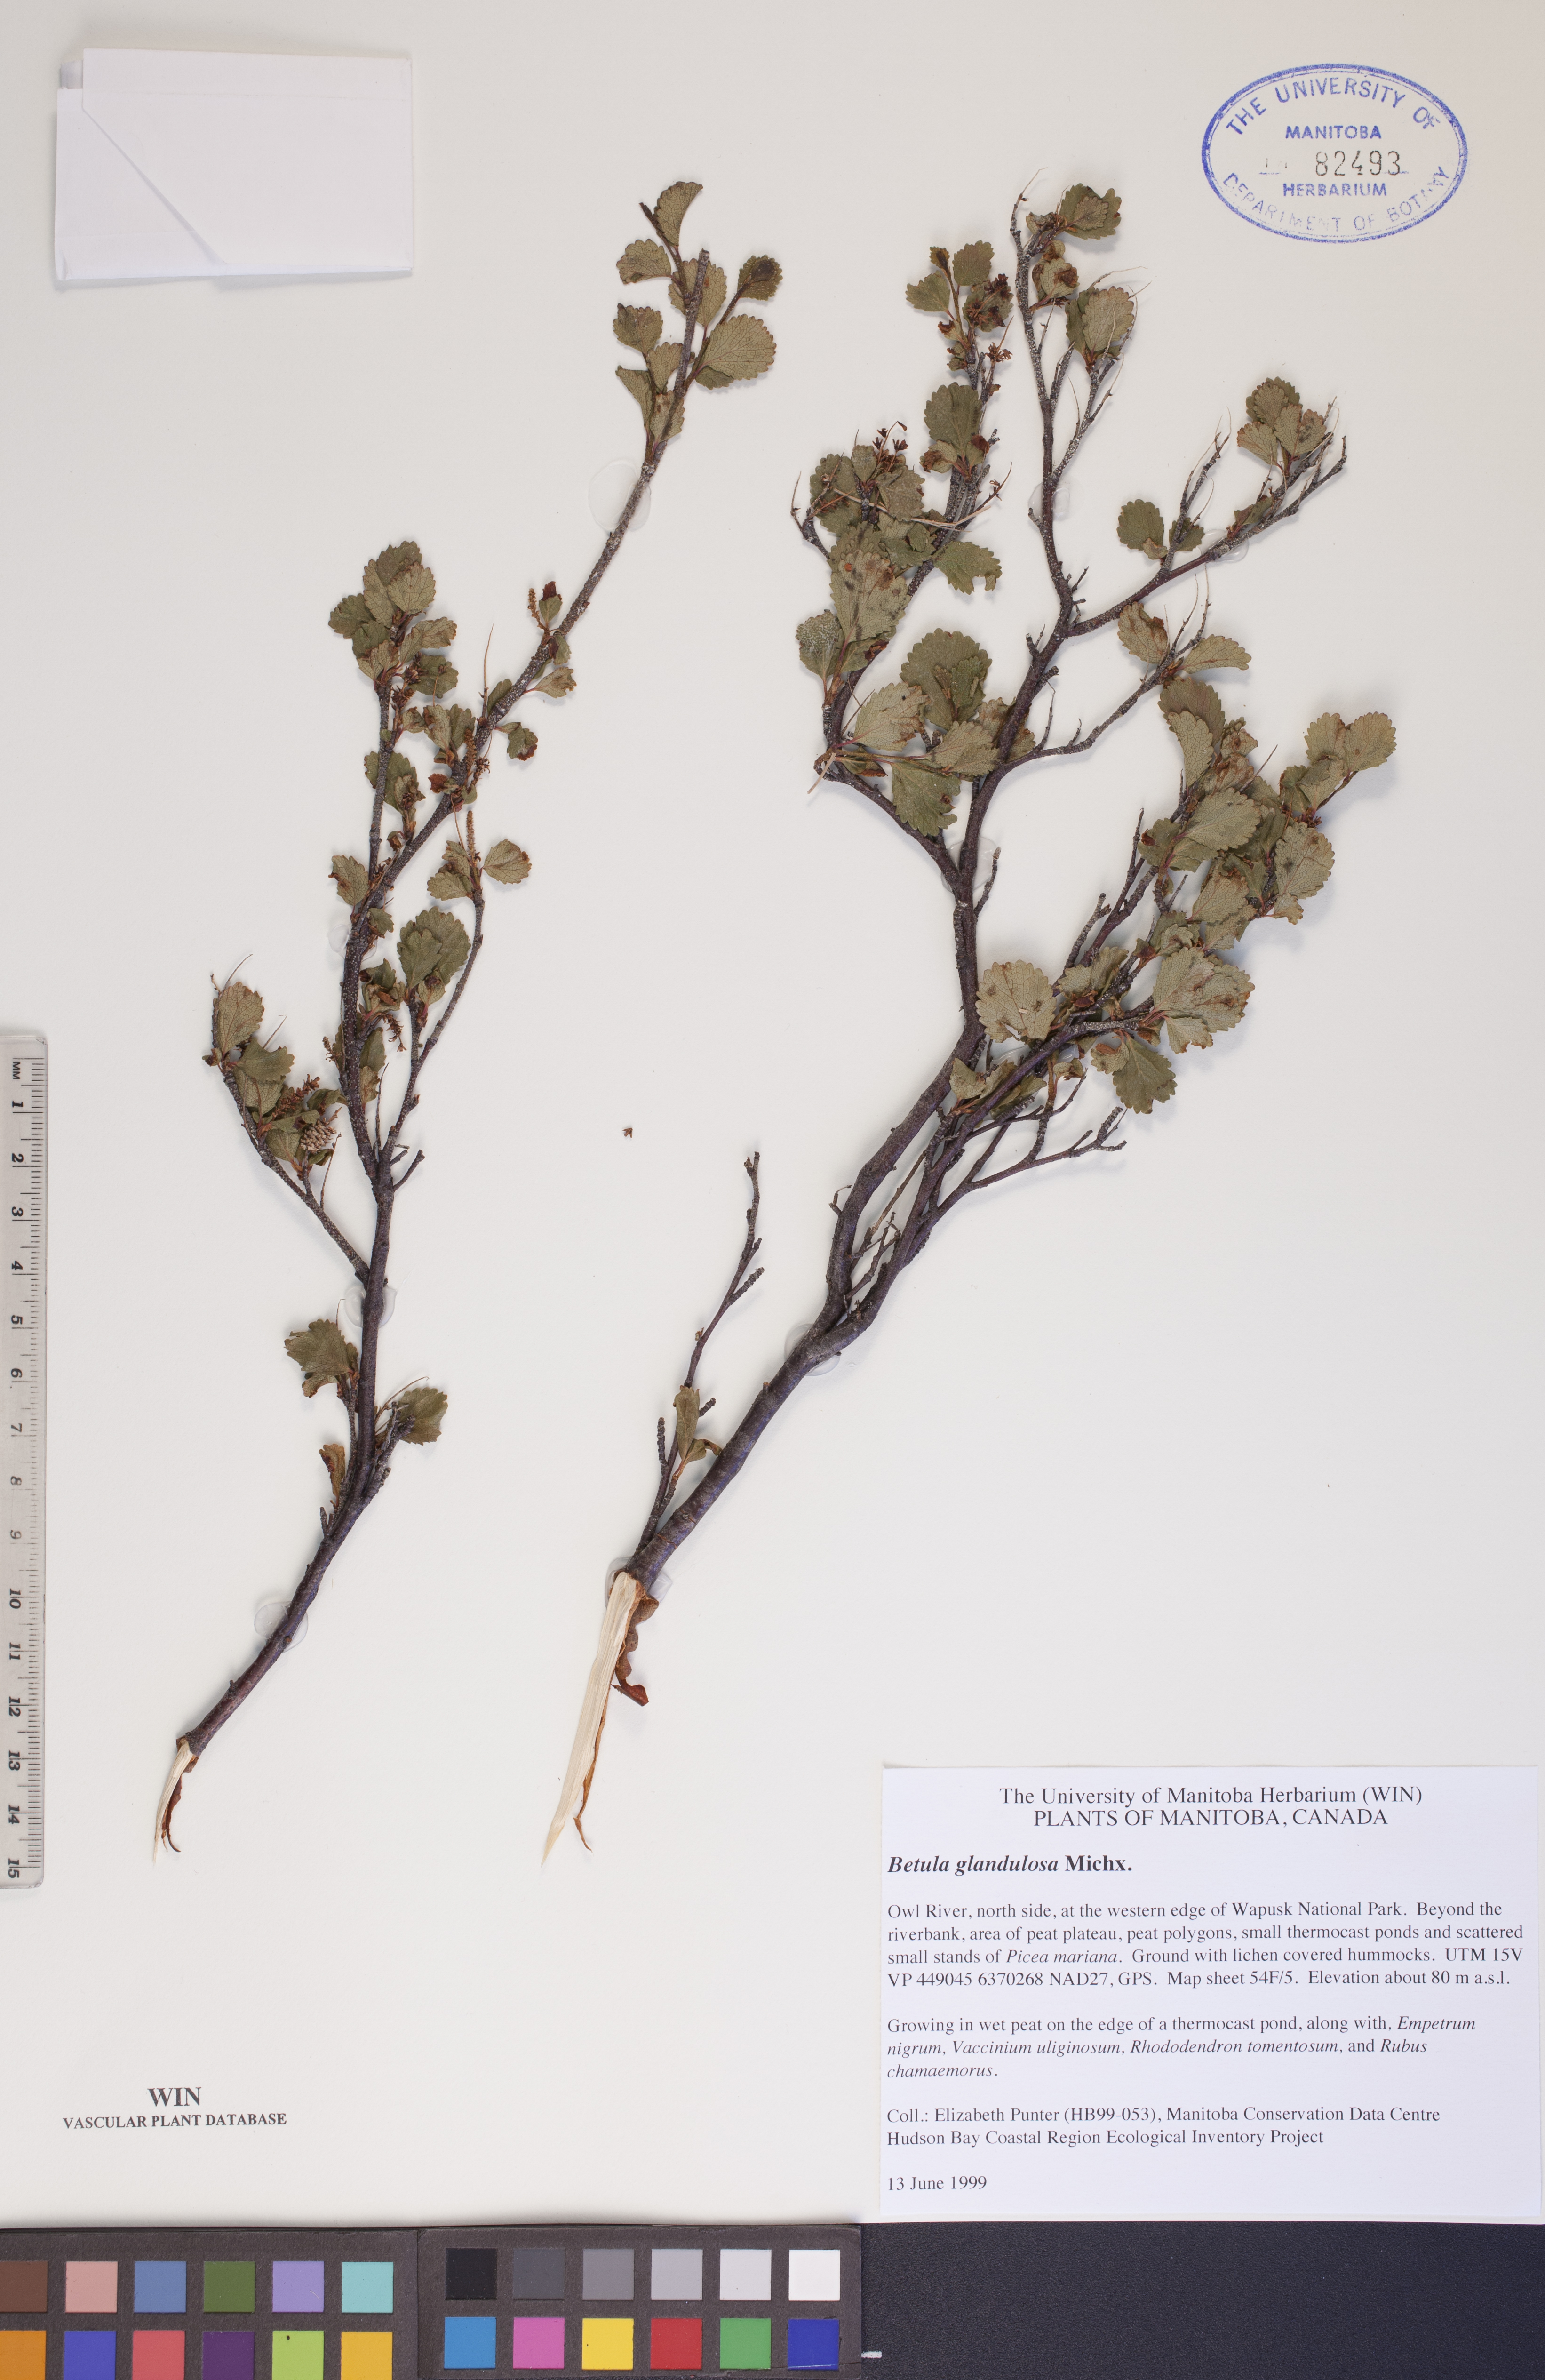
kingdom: Plantae
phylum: Tracheophyta
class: Magnoliopsida
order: Fagales
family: Betulaceae
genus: Betula
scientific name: Betula glandulosa
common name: Dwarf birch
